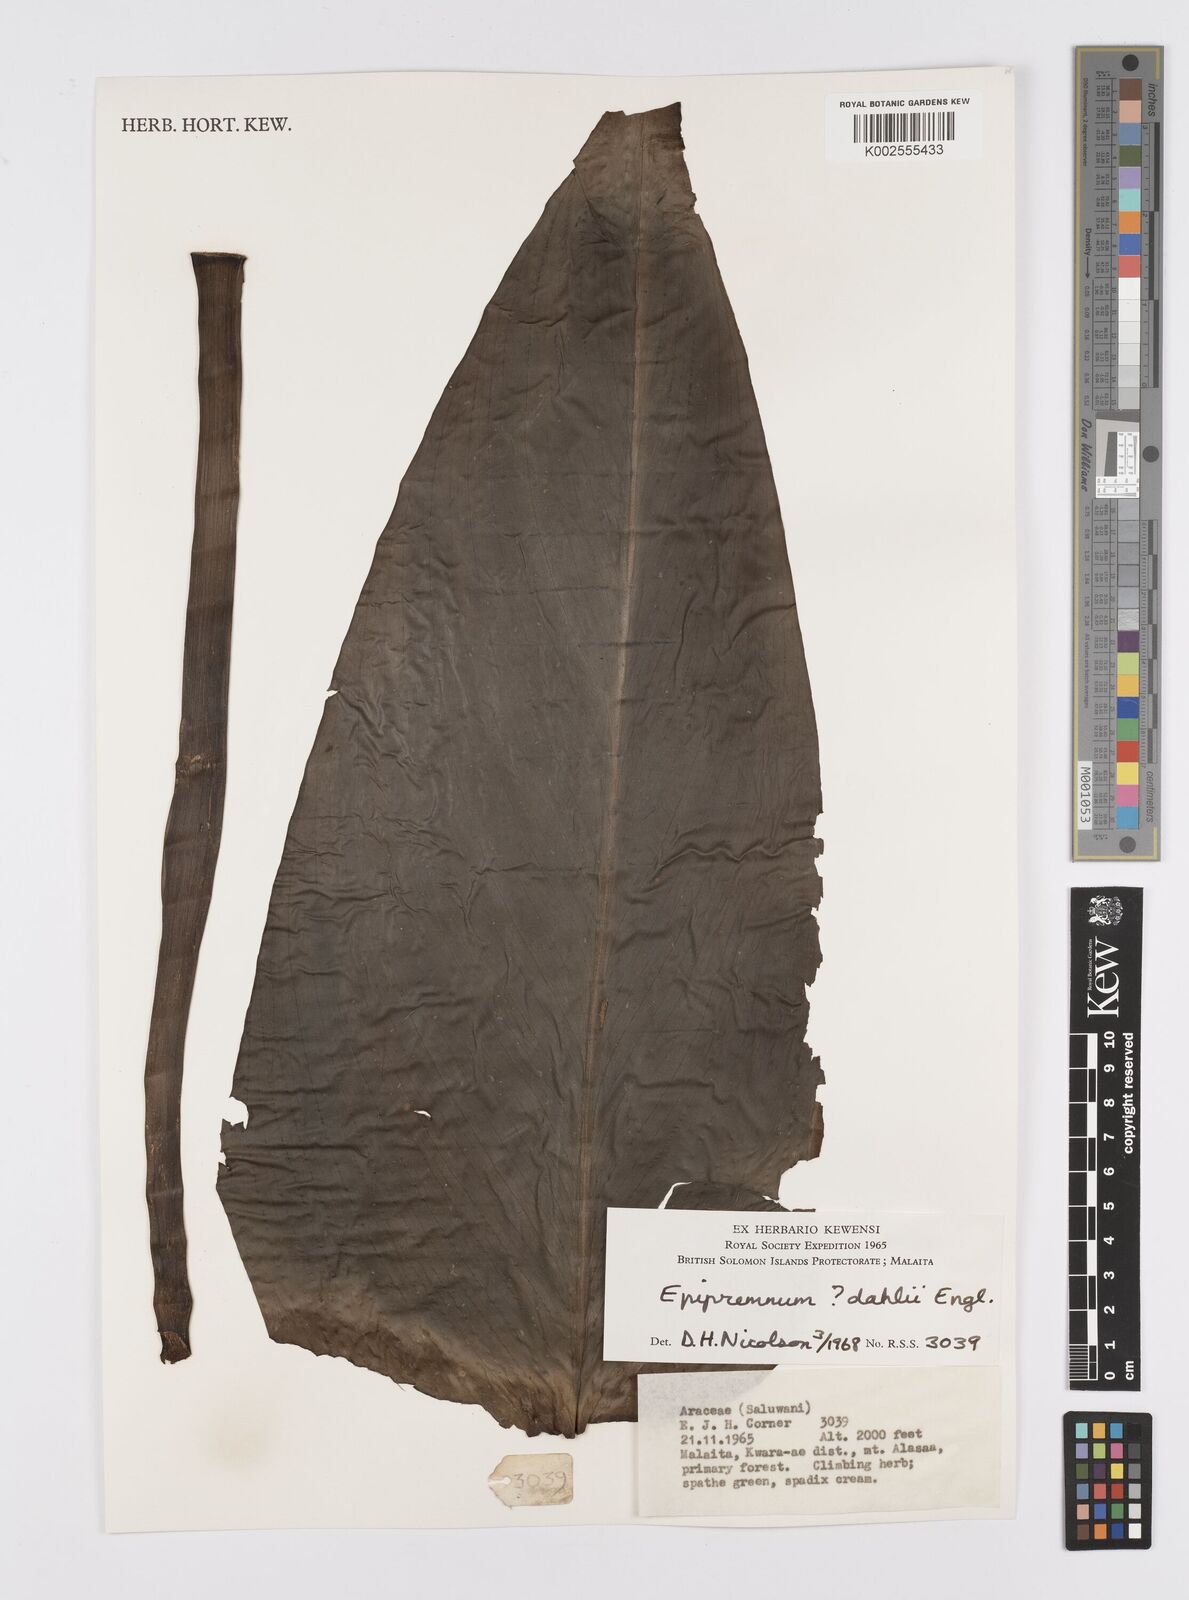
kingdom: Plantae
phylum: Tracheophyta
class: Liliopsida
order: Alismatales
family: Araceae
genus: Epipremnum
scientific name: Epipremnum dahlii
